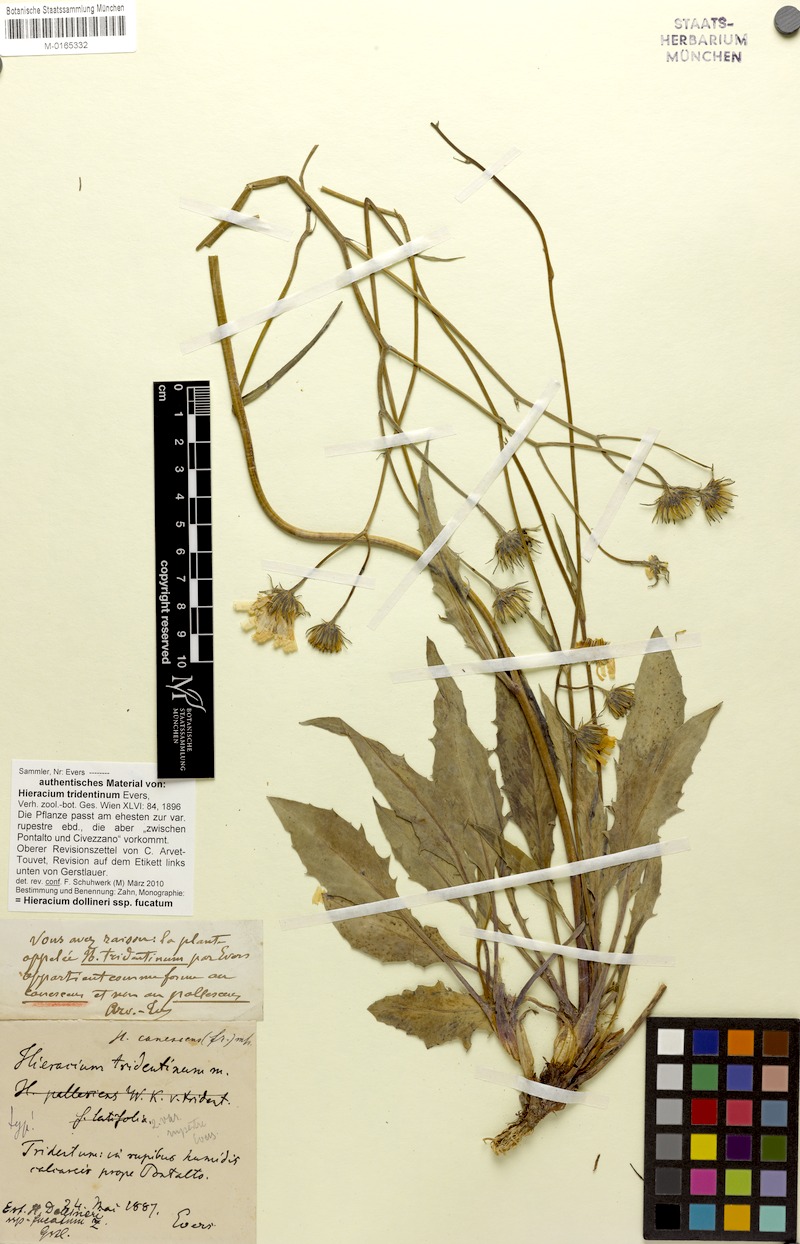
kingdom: Plantae
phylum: Tracheophyta
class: Magnoliopsida
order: Asterales
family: Asteraceae
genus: Hieracium
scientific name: Hieracium dollineri
